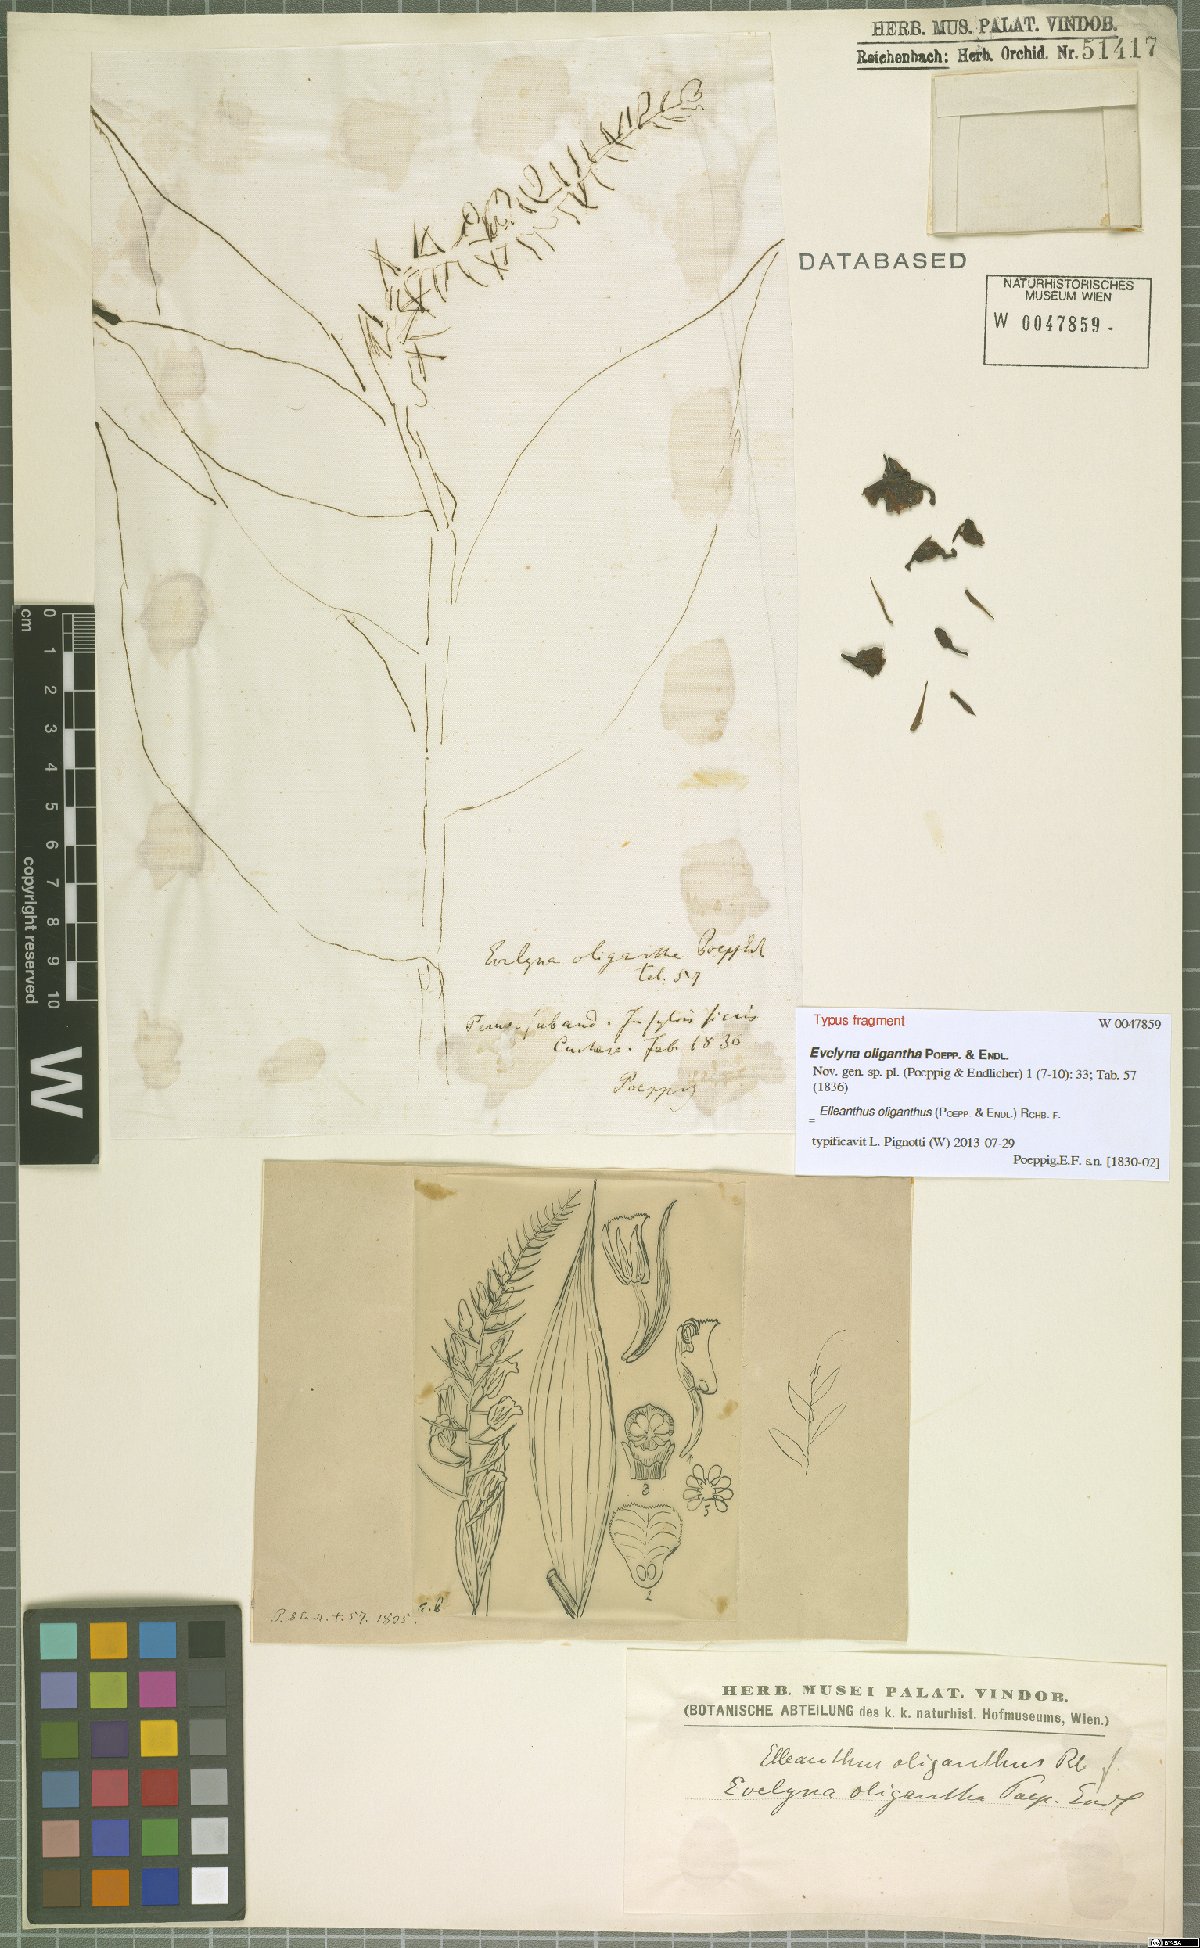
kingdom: Plantae
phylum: Tracheophyta
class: Liliopsida
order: Asparagales
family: Orchidaceae
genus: Elleanthus
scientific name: Elleanthus oliganthus
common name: Sparse blooming elleanthus
